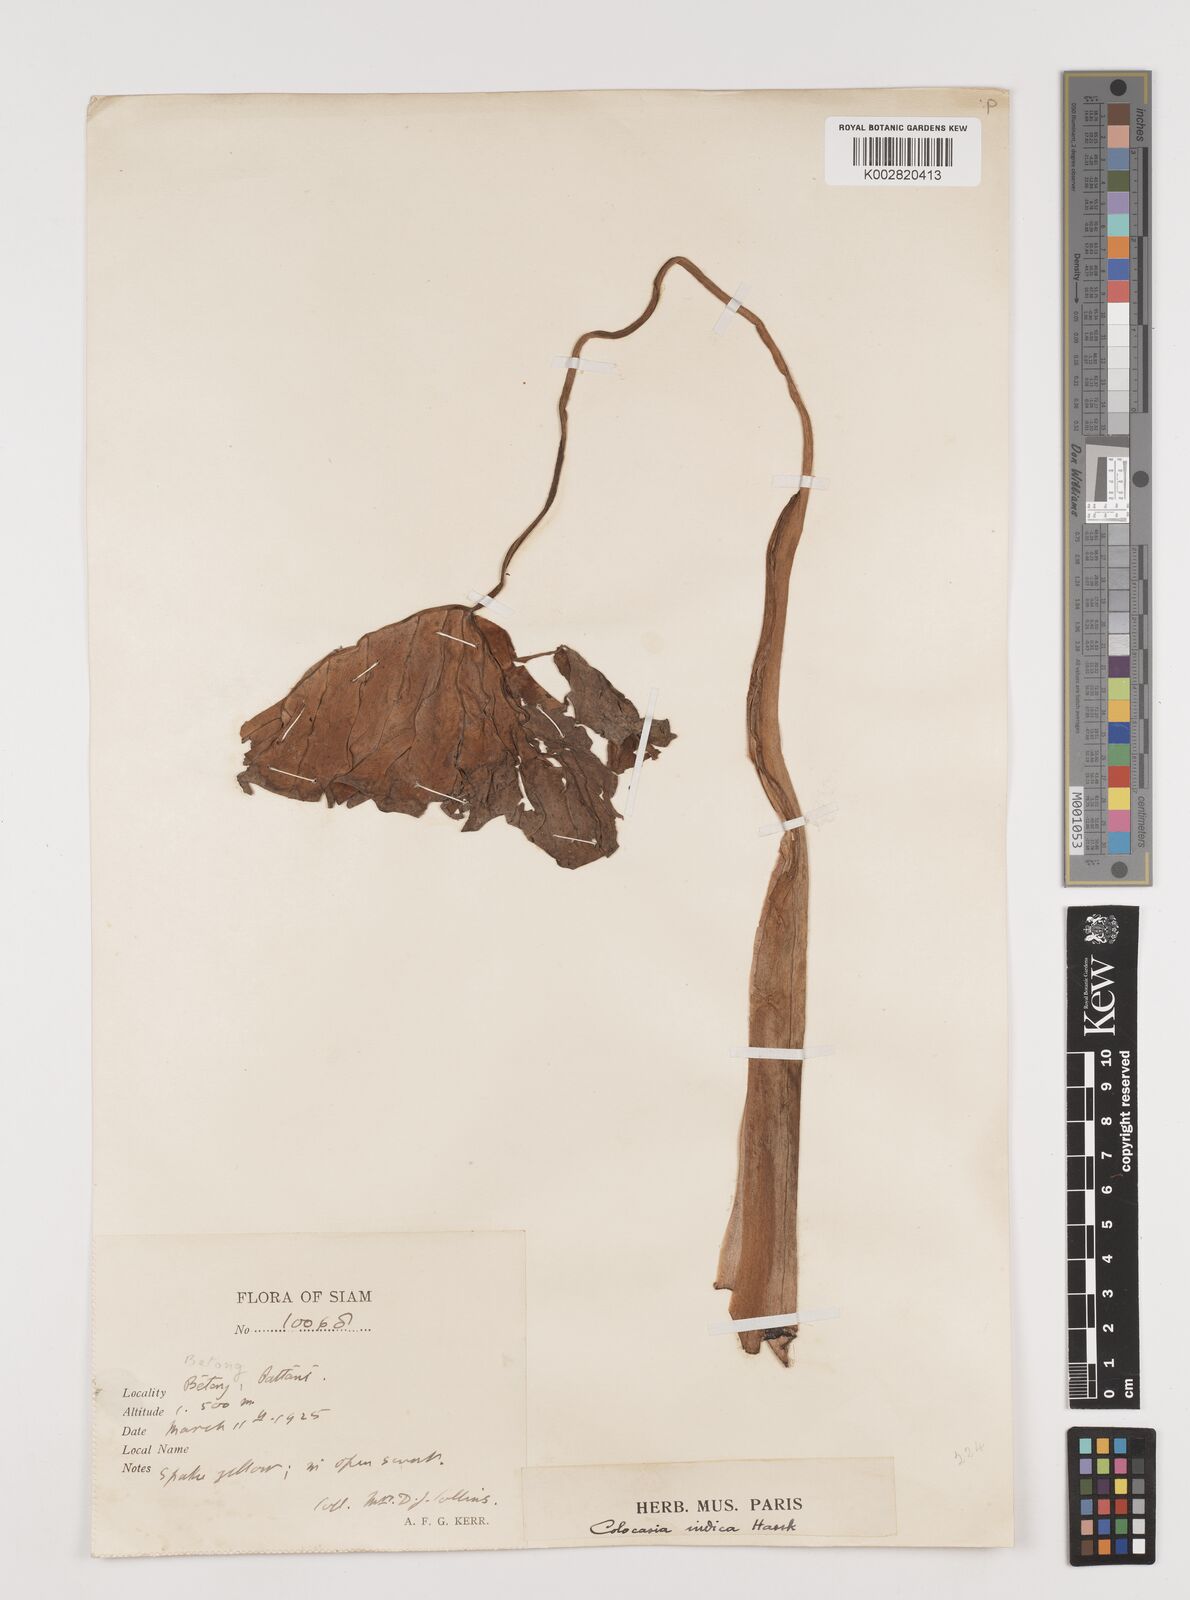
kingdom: Plantae
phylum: Tracheophyta
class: Liliopsida
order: Alismatales
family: Araceae
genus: Colocasia
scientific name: Colocasia esculenta
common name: Taro
